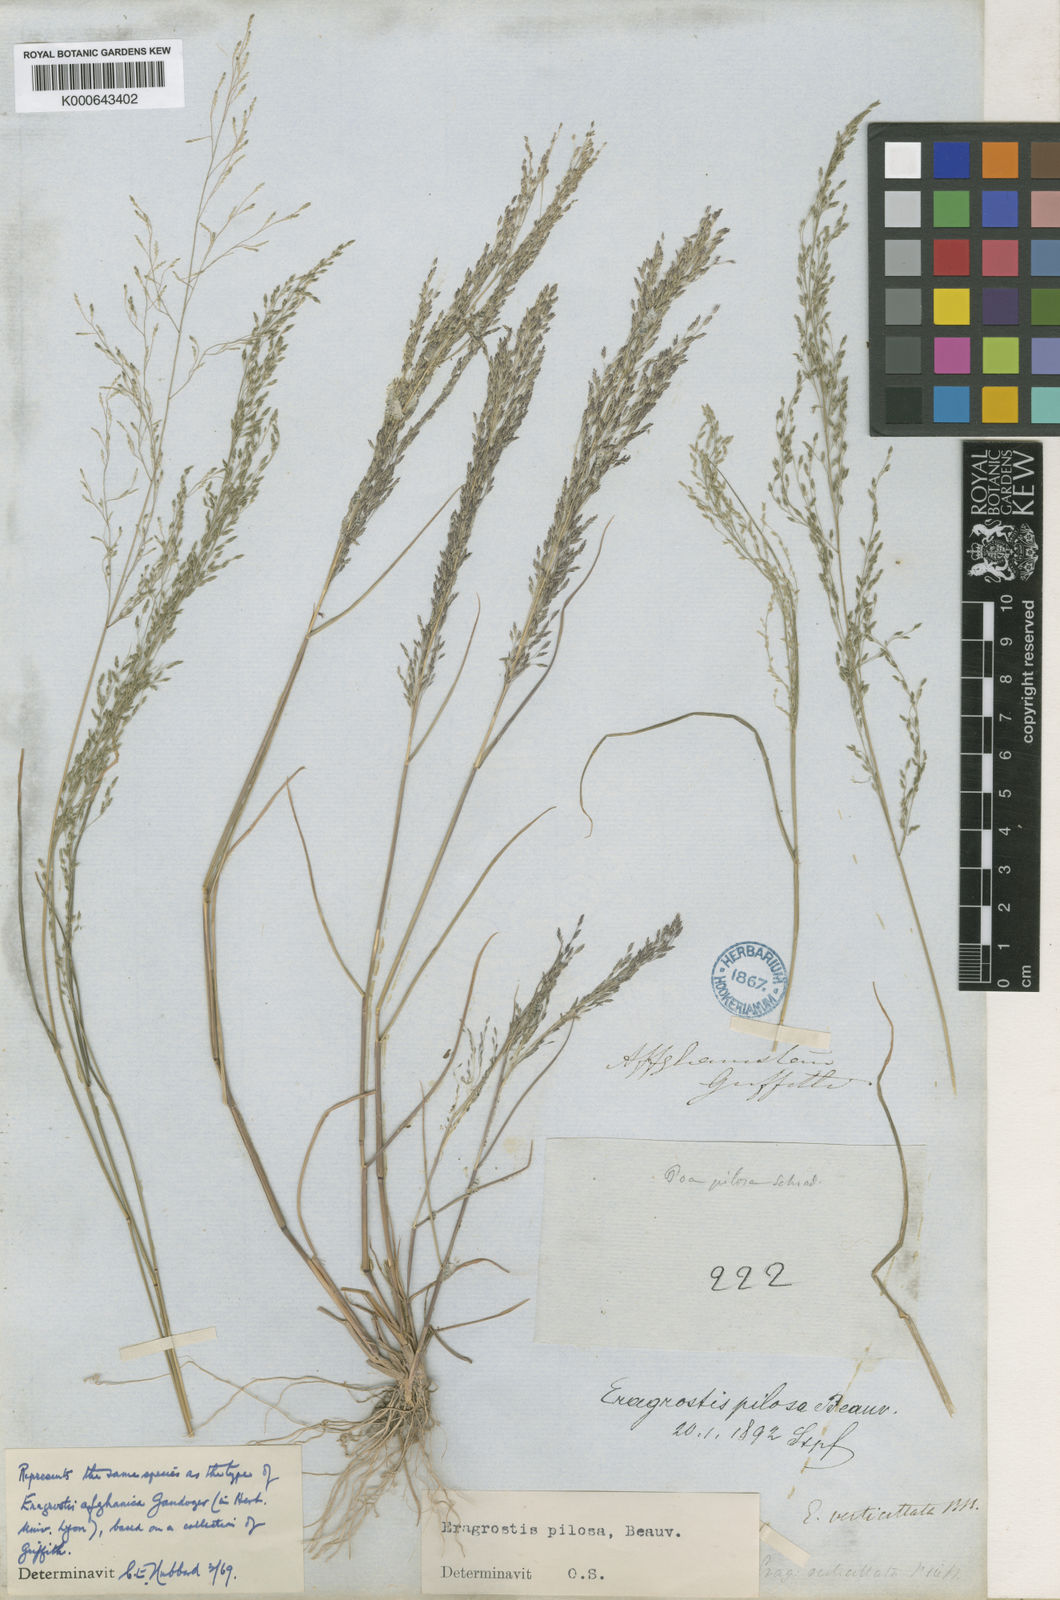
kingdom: Plantae
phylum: Tracheophyta
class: Liliopsida
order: Poales
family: Poaceae
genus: Eragrostis
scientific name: Eragrostis pilosa
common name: Indian lovegrass
